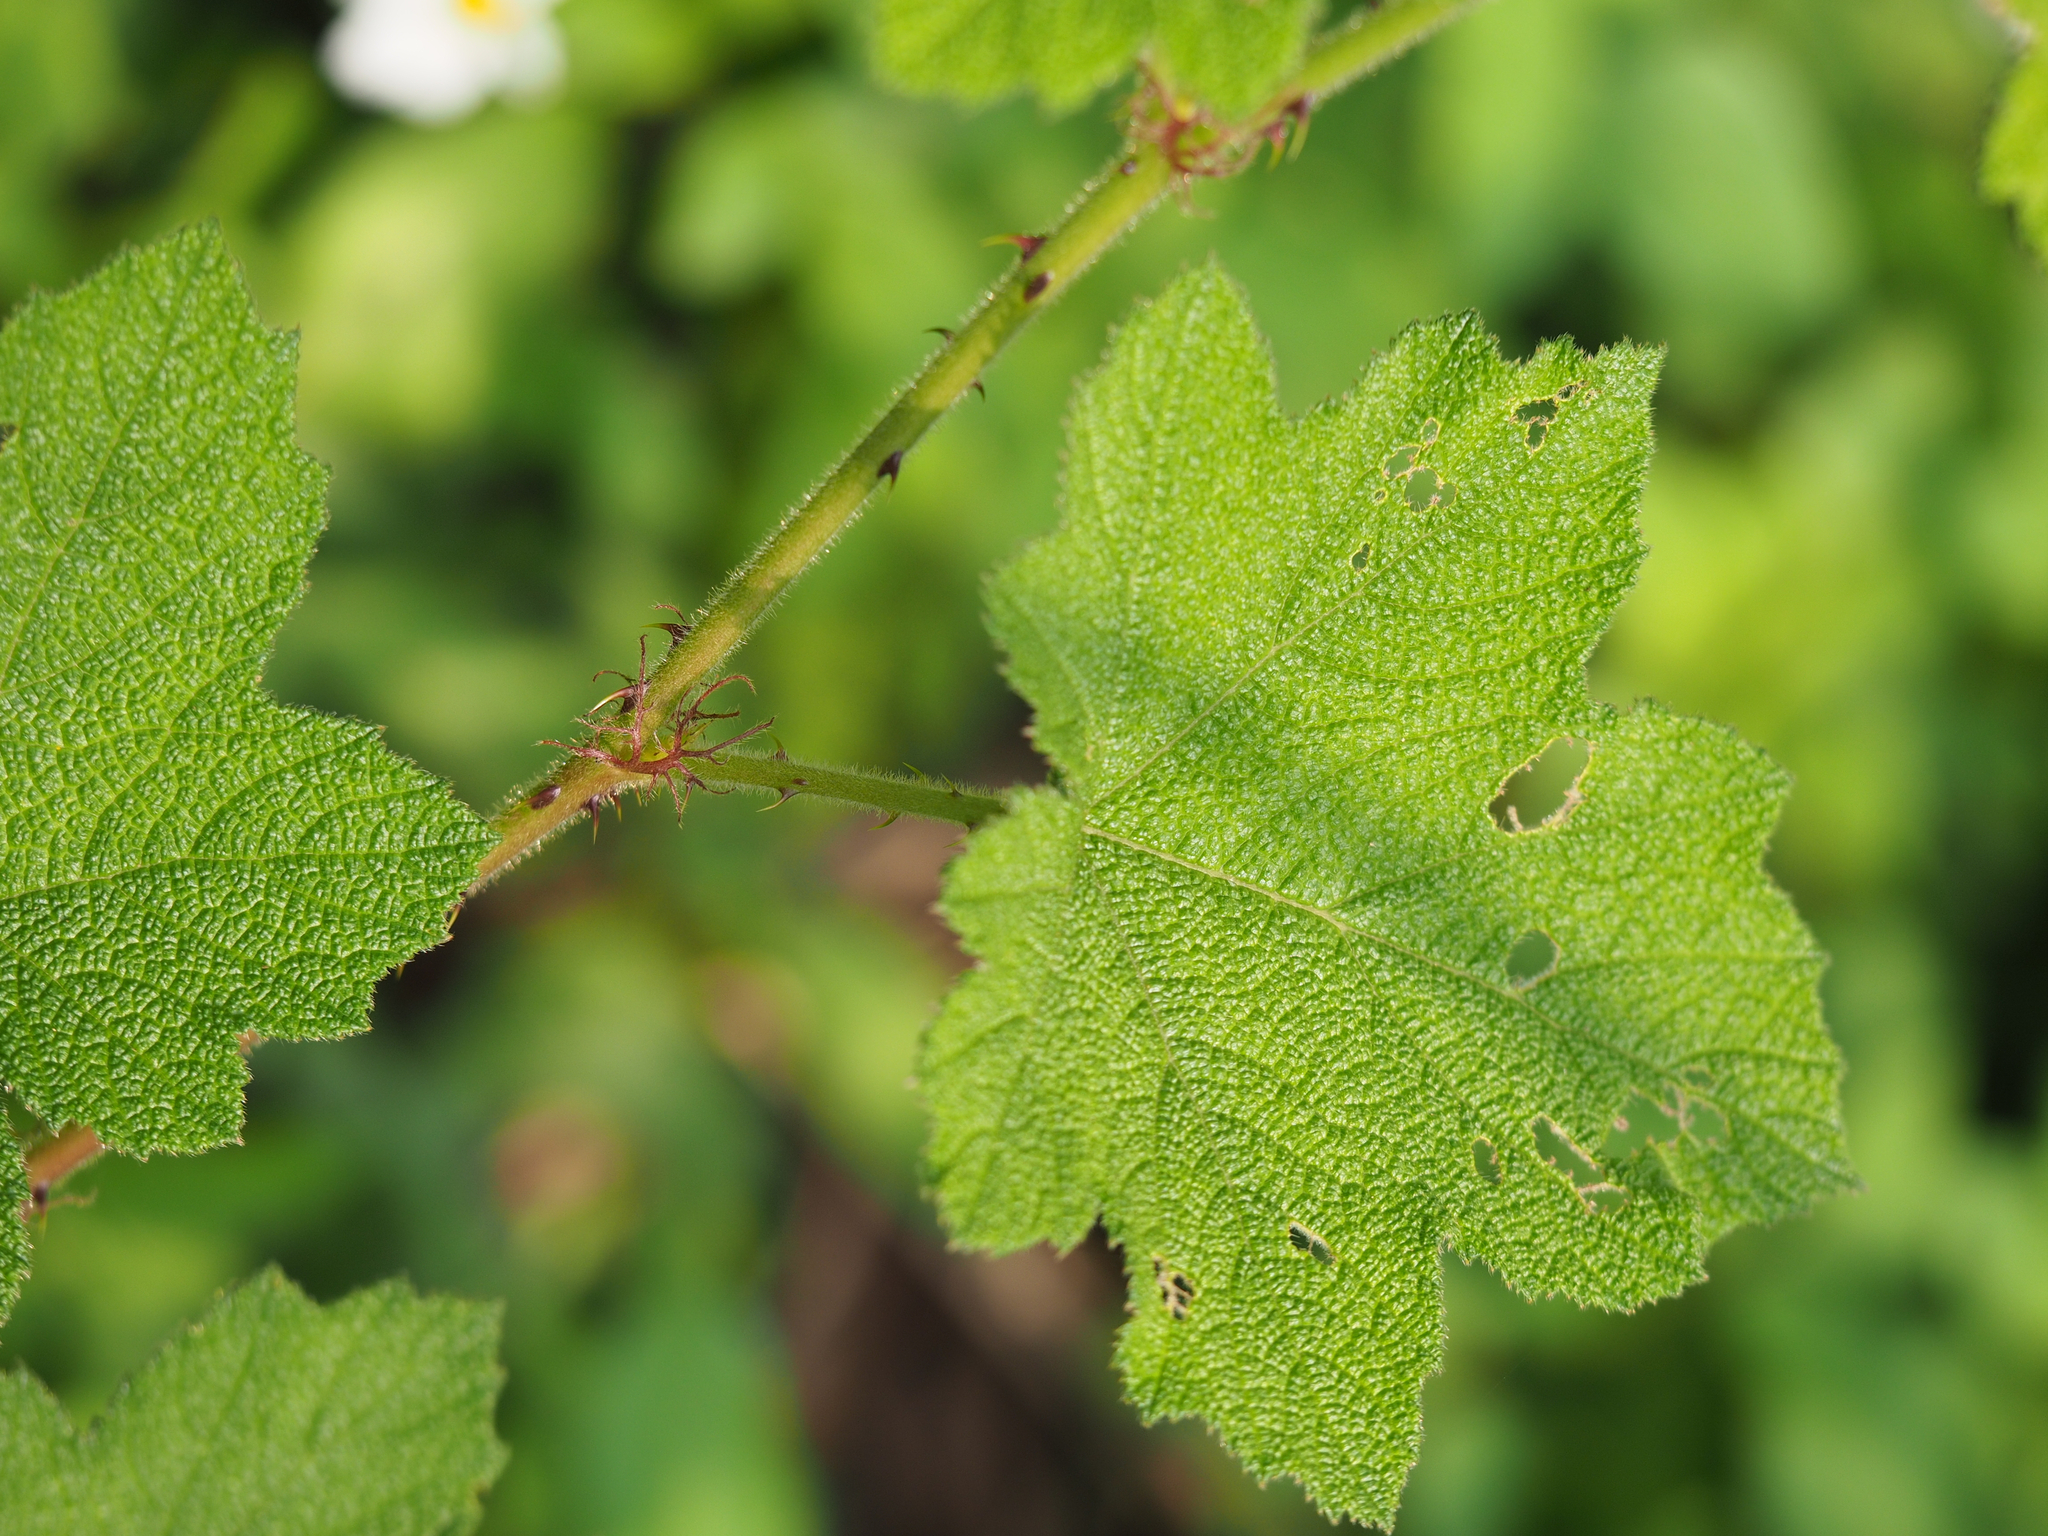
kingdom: Plantae
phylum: Tracheophyta
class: Magnoliopsida
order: Rosales
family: Rosaceae
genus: Rubus
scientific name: Rubus alceifolius
